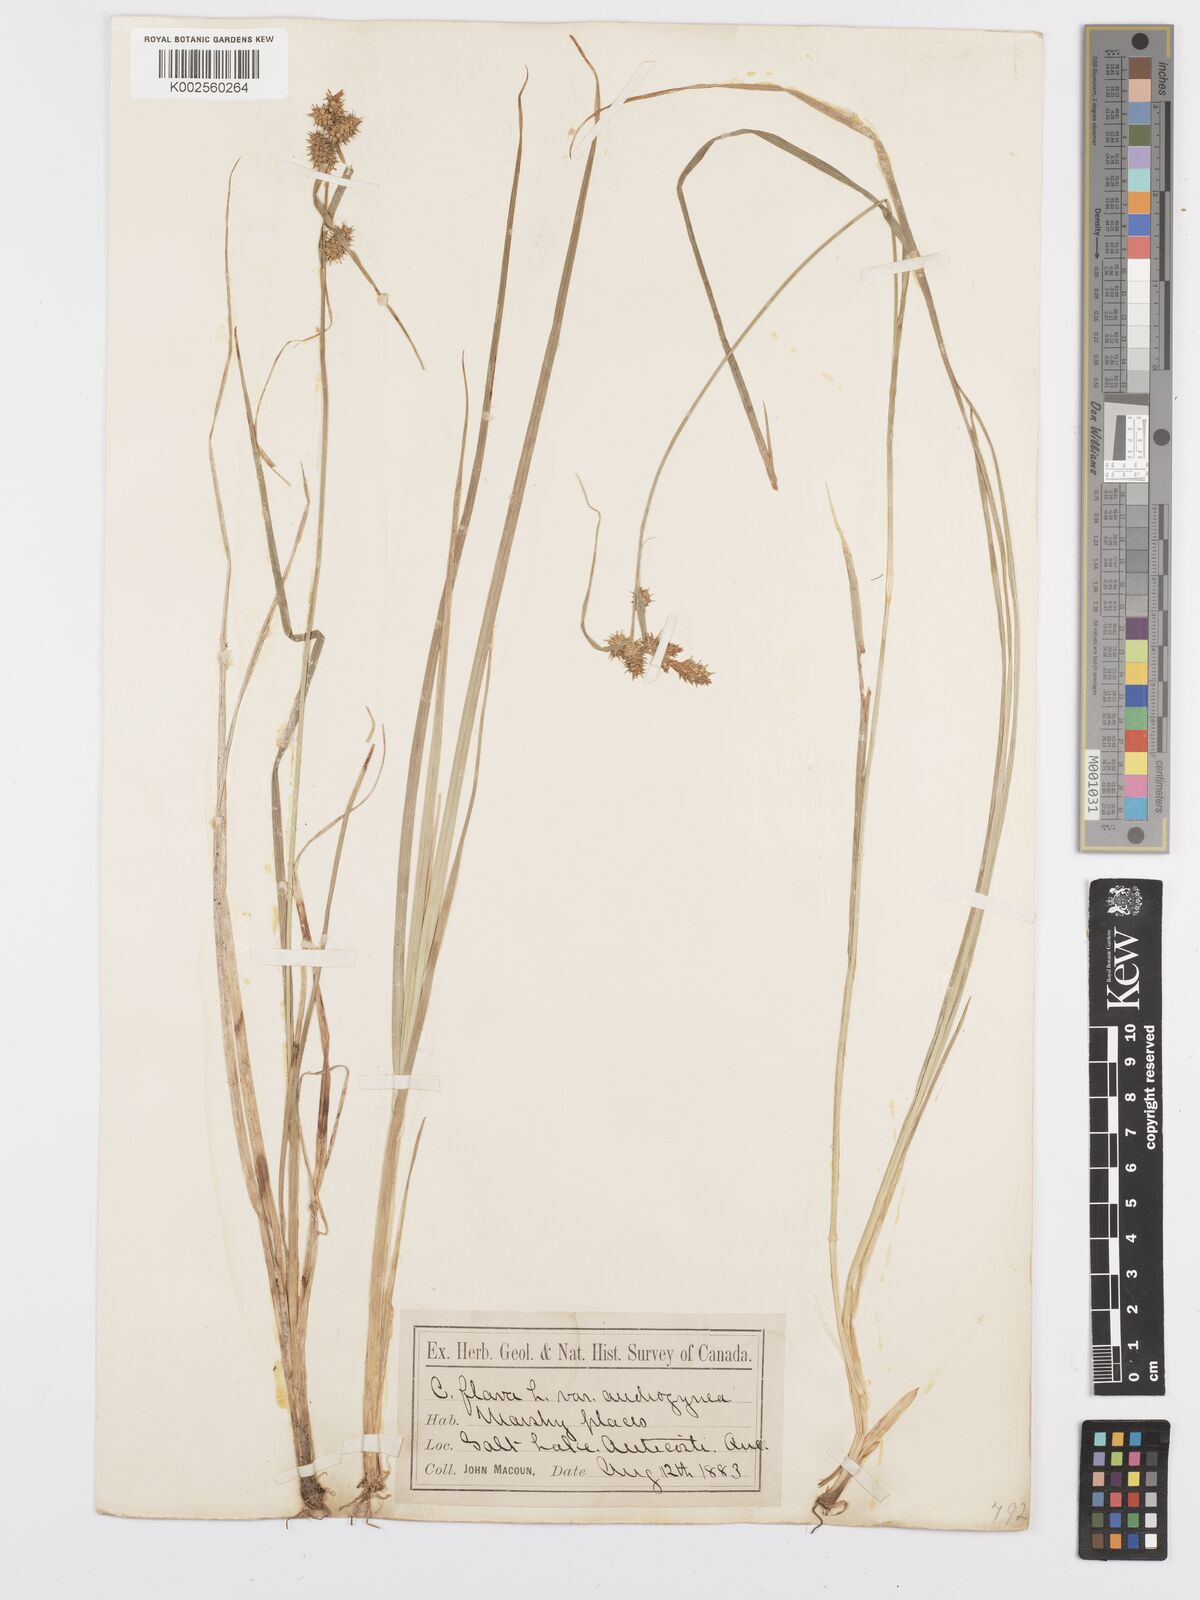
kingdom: Plantae
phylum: Tracheophyta
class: Liliopsida
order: Poales
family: Cyperaceae
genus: Carex
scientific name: Carex flava
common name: Large yellow-sedge
